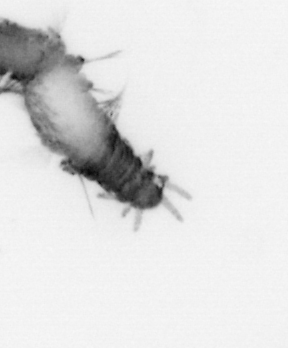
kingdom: Animalia
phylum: Annelida
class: Polychaeta
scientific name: Polychaeta
